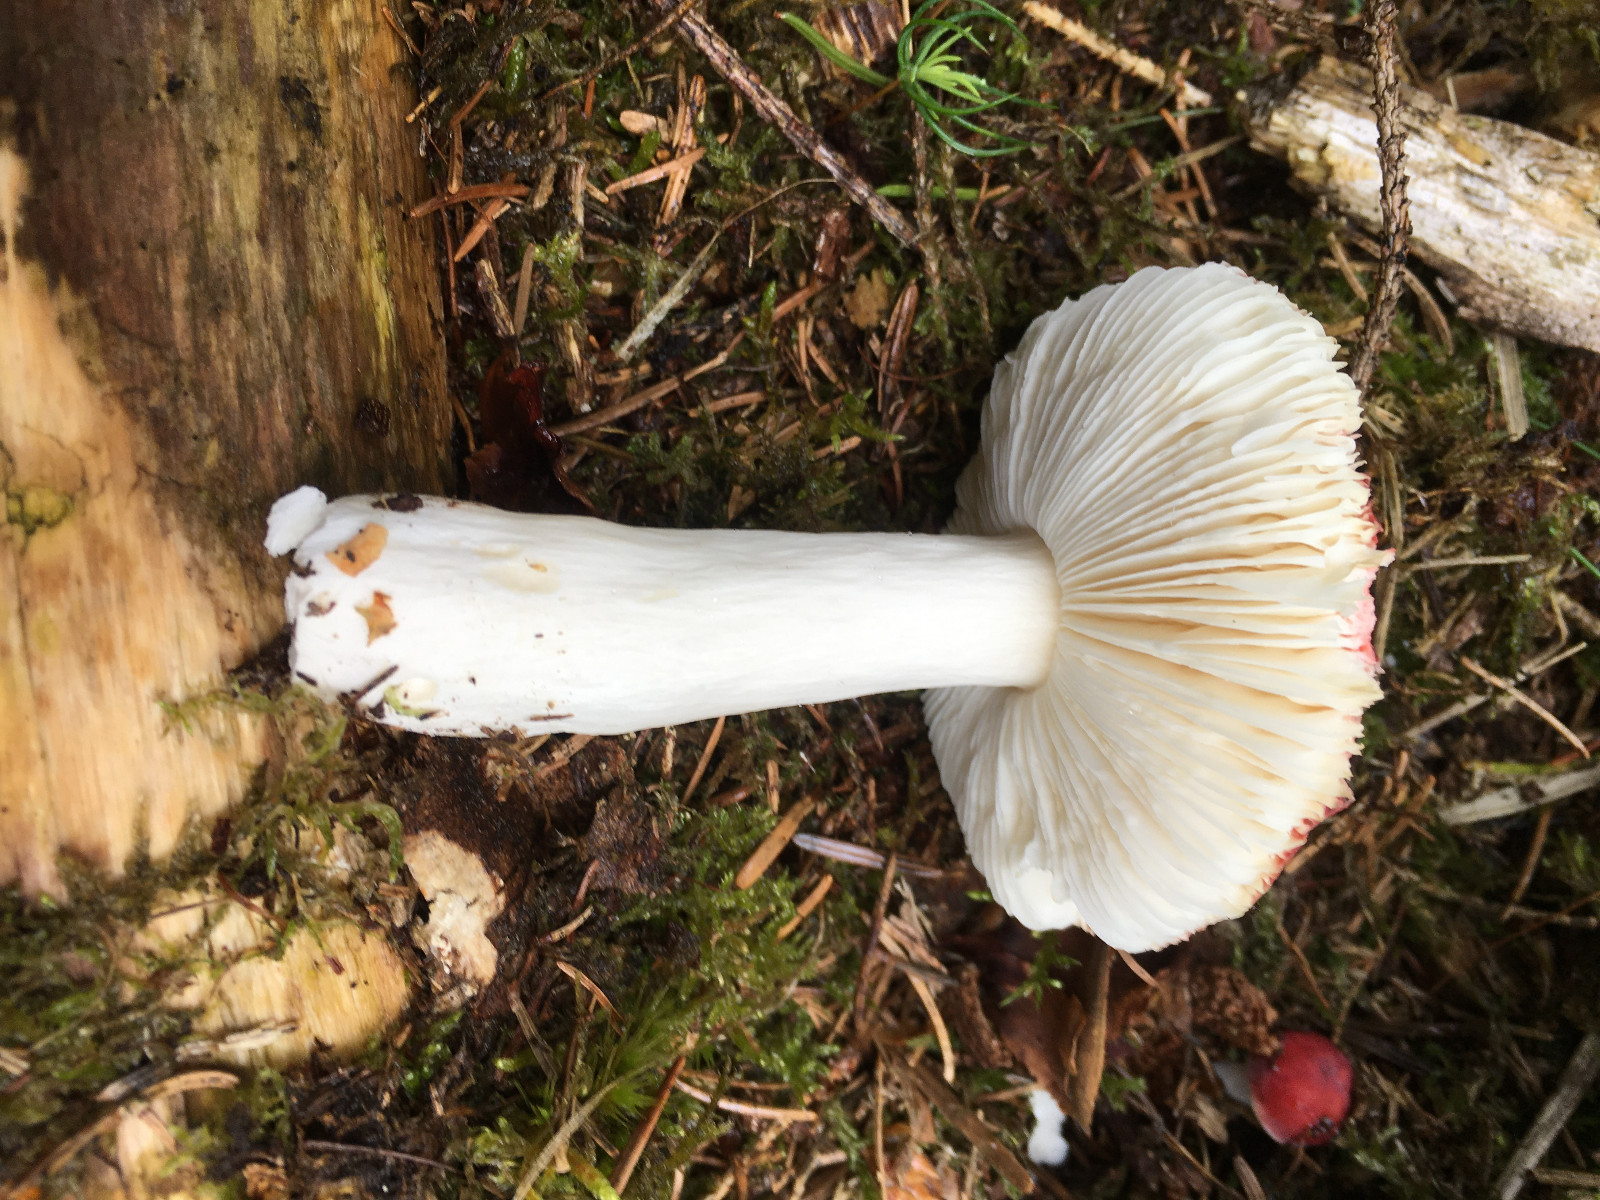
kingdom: Fungi
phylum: Basidiomycota
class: Agaricomycetes
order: Russulales
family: Russulaceae
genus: Russula
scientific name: Russula
